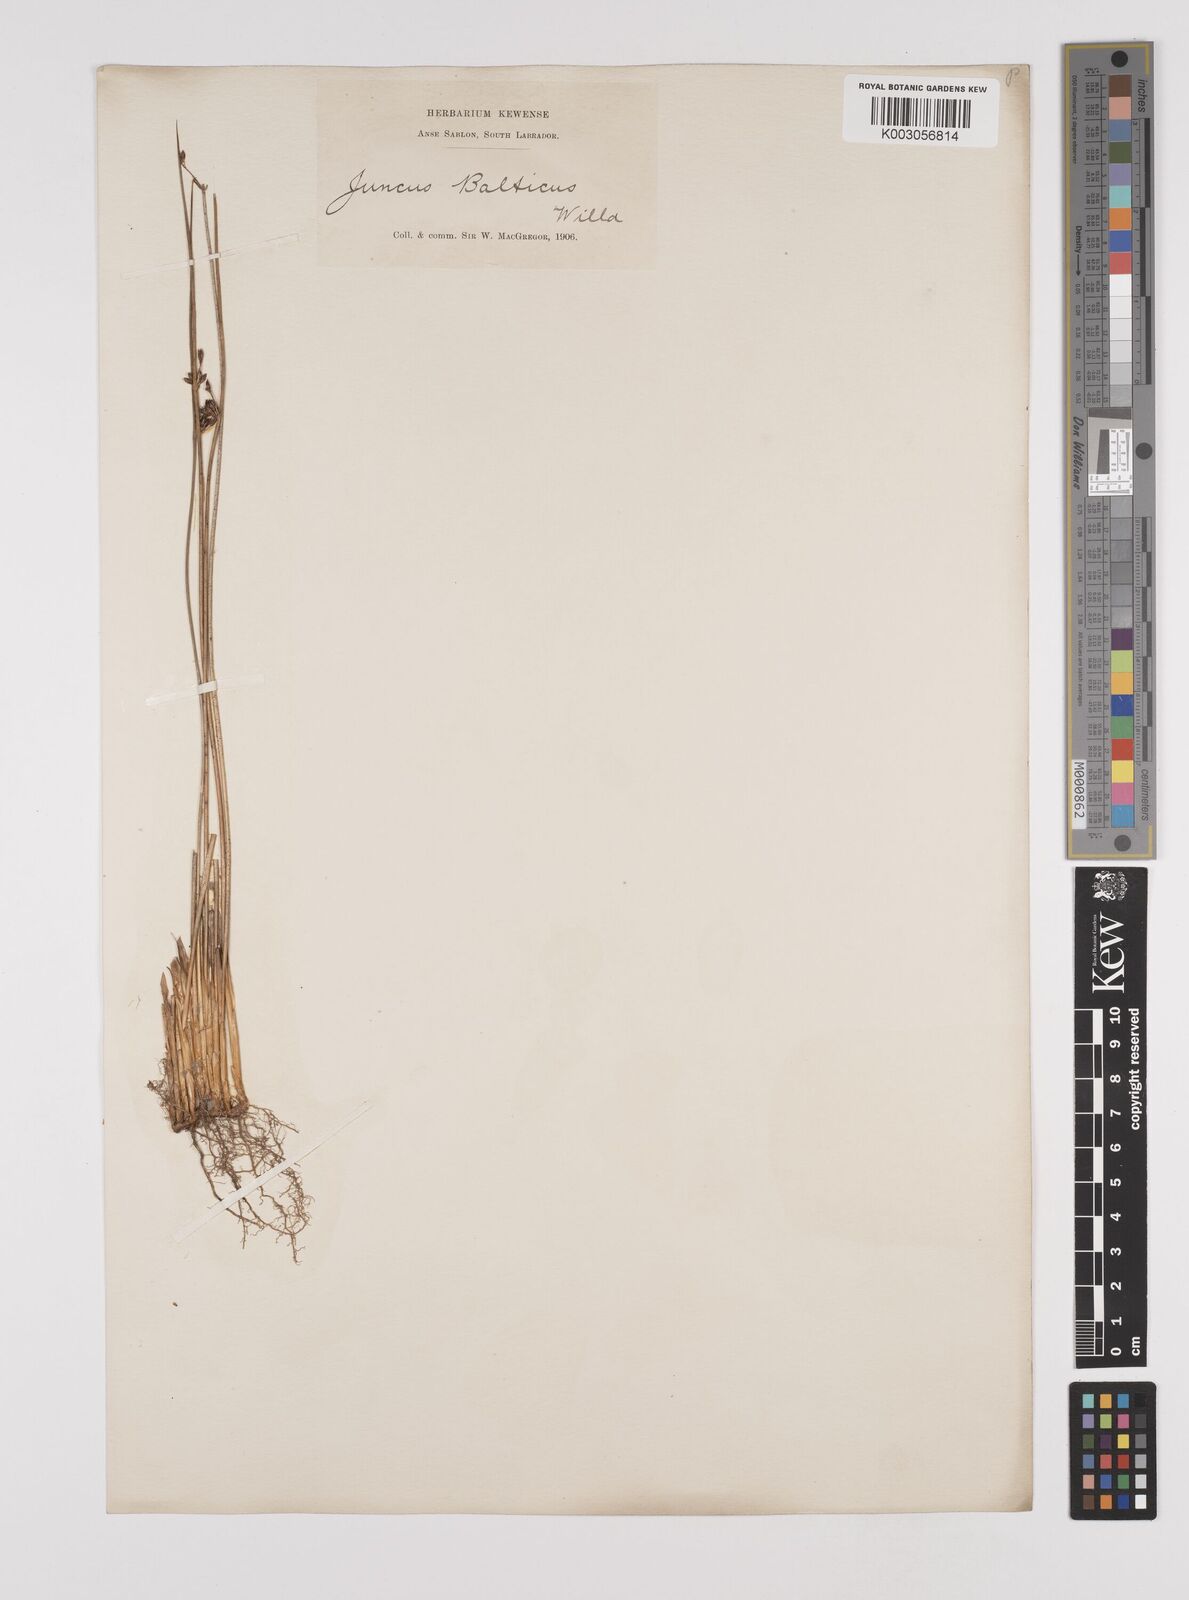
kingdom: Plantae
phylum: Tracheophyta
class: Liliopsida
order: Poales
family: Juncaceae
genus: Juncus
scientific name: Juncus balticus
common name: Baltic rush
